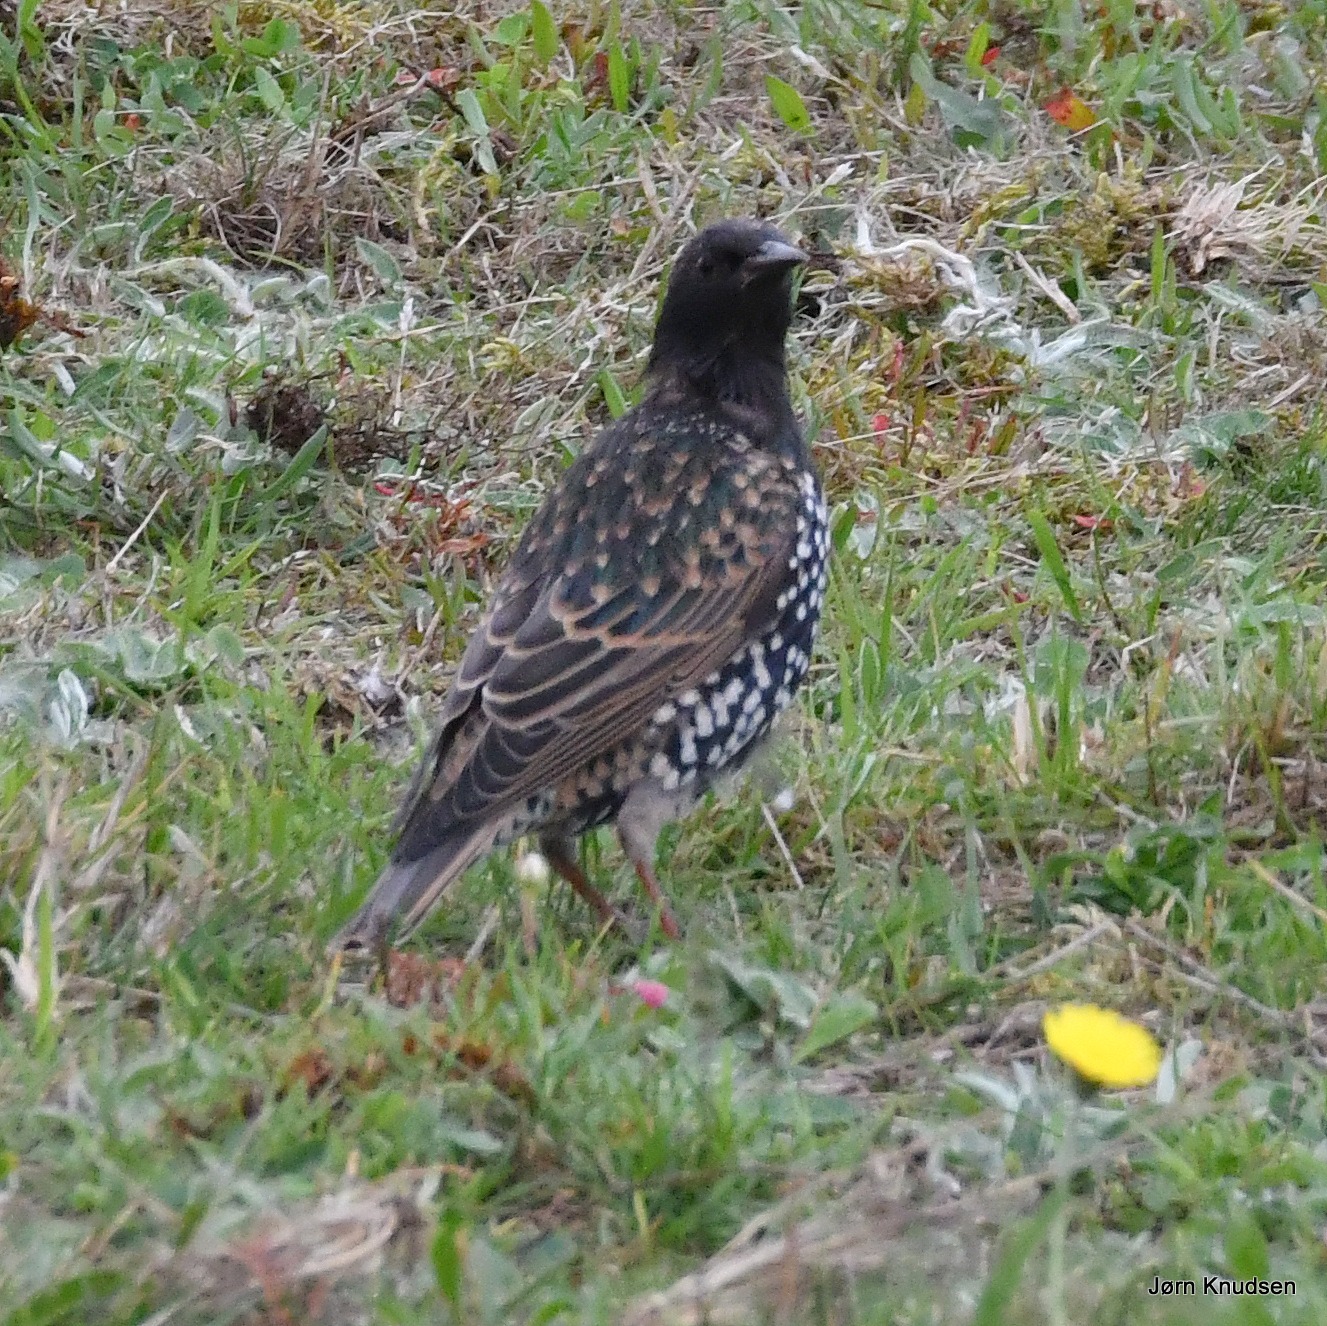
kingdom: Animalia
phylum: Chordata
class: Aves
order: Passeriformes
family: Sturnidae
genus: Sturnus
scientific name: Sturnus vulgaris
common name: Stær
